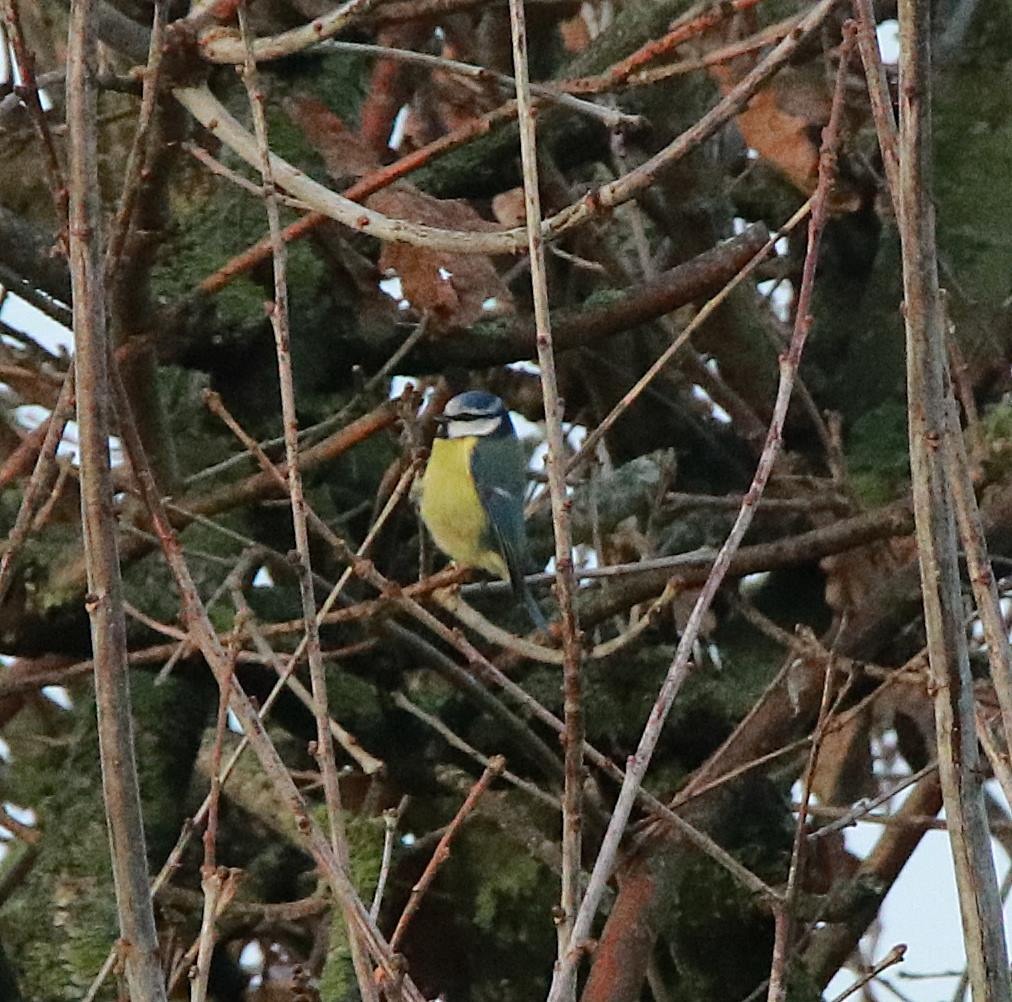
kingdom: Animalia
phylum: Chordata
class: Aves
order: Passeriformes
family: Paridae
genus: Cyanistes
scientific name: Cyanistes caeruleus
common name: Blåmejse
